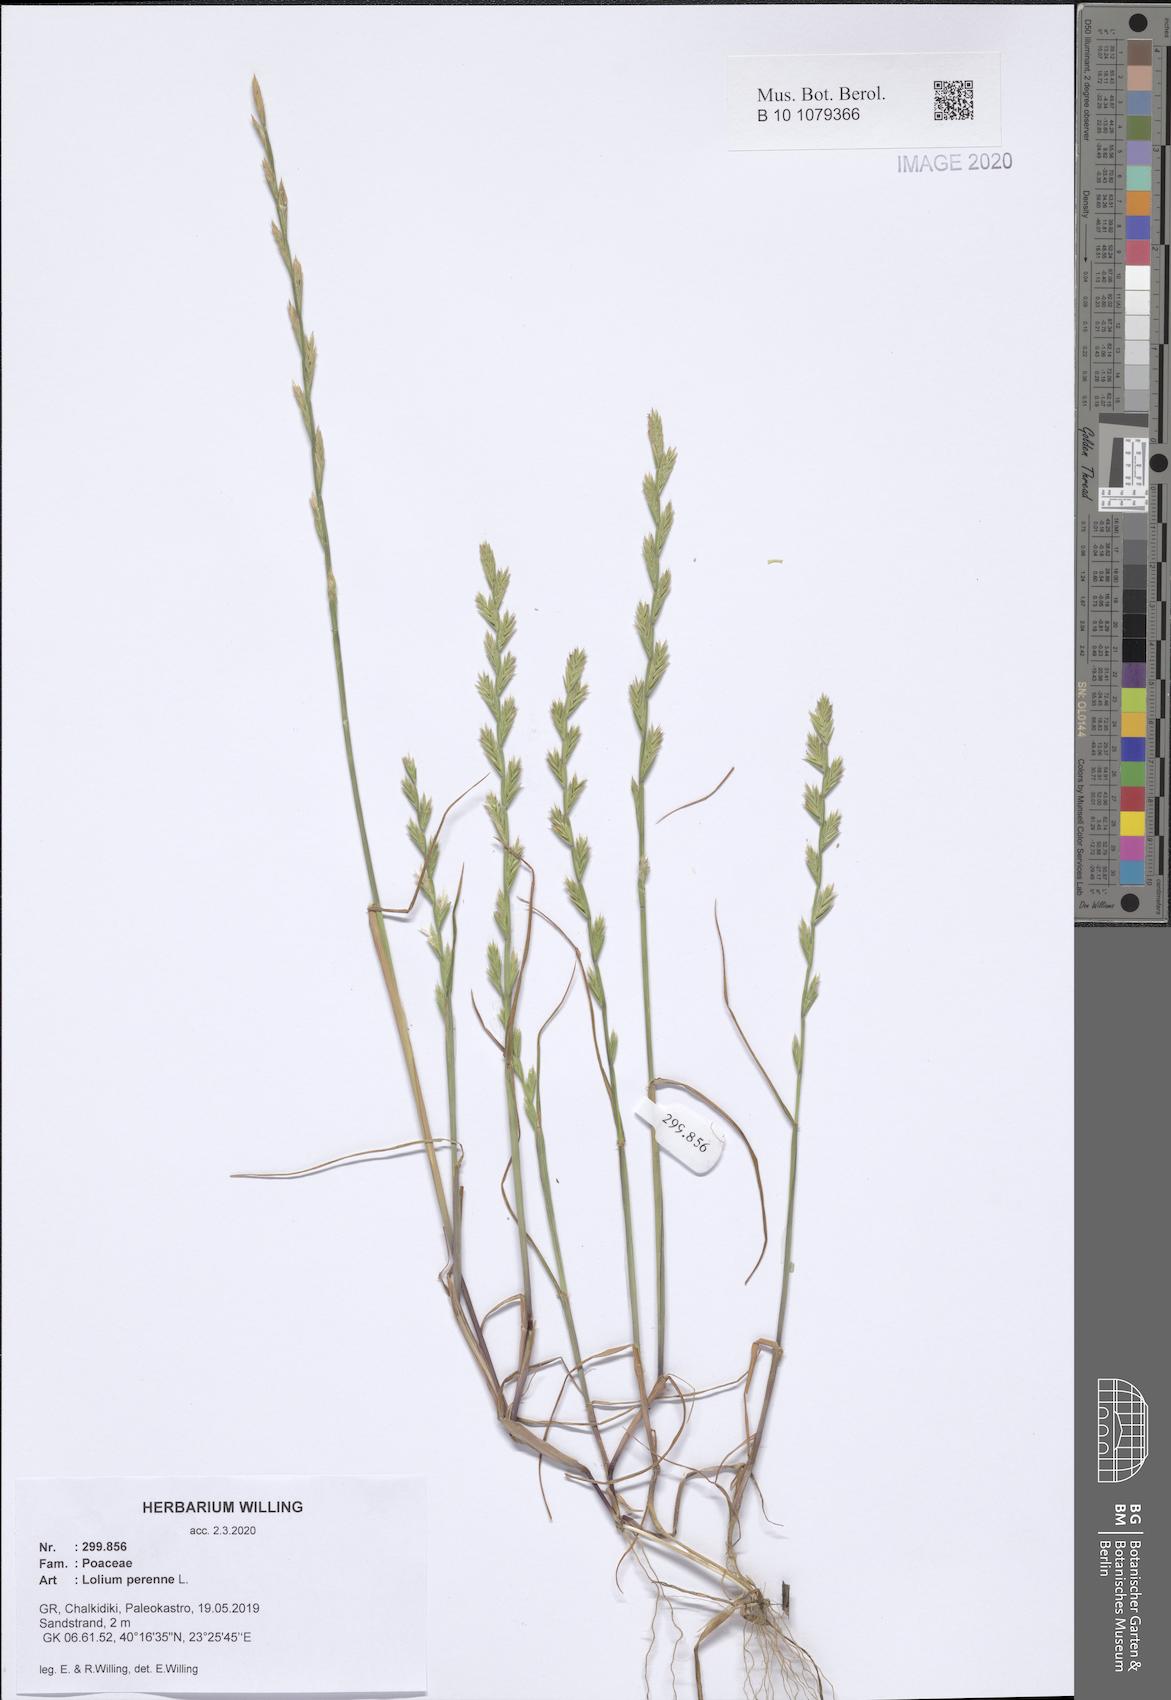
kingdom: Plantae
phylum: Tracheophyta
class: Liliopsida
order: Poales
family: Poaceae
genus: Lolium
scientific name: Lolium perenne
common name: Perennial ryegrass
